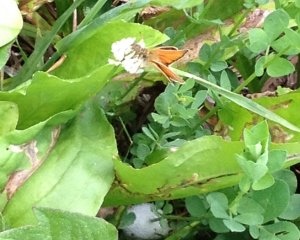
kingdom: Animalia
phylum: Arthropoda
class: Insecta
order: Lepidoptera
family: Hesperiidae
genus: Thymelicus
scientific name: Thymelicus lineola
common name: European Skipper
